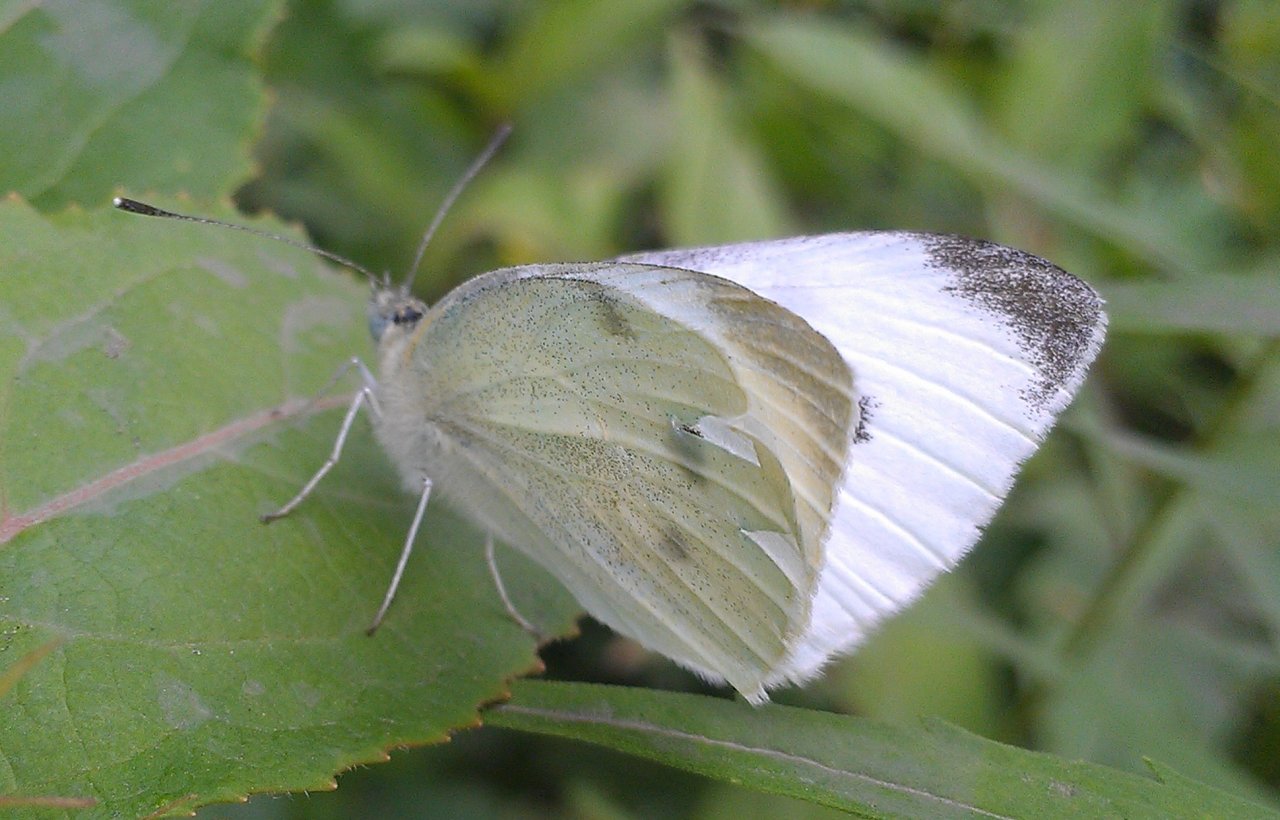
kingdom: Animalia
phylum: Arthropoda
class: Insecta
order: Lepidoptera
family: Pieridae
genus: Pieris
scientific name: Pieris rapae
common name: Cabbage White
